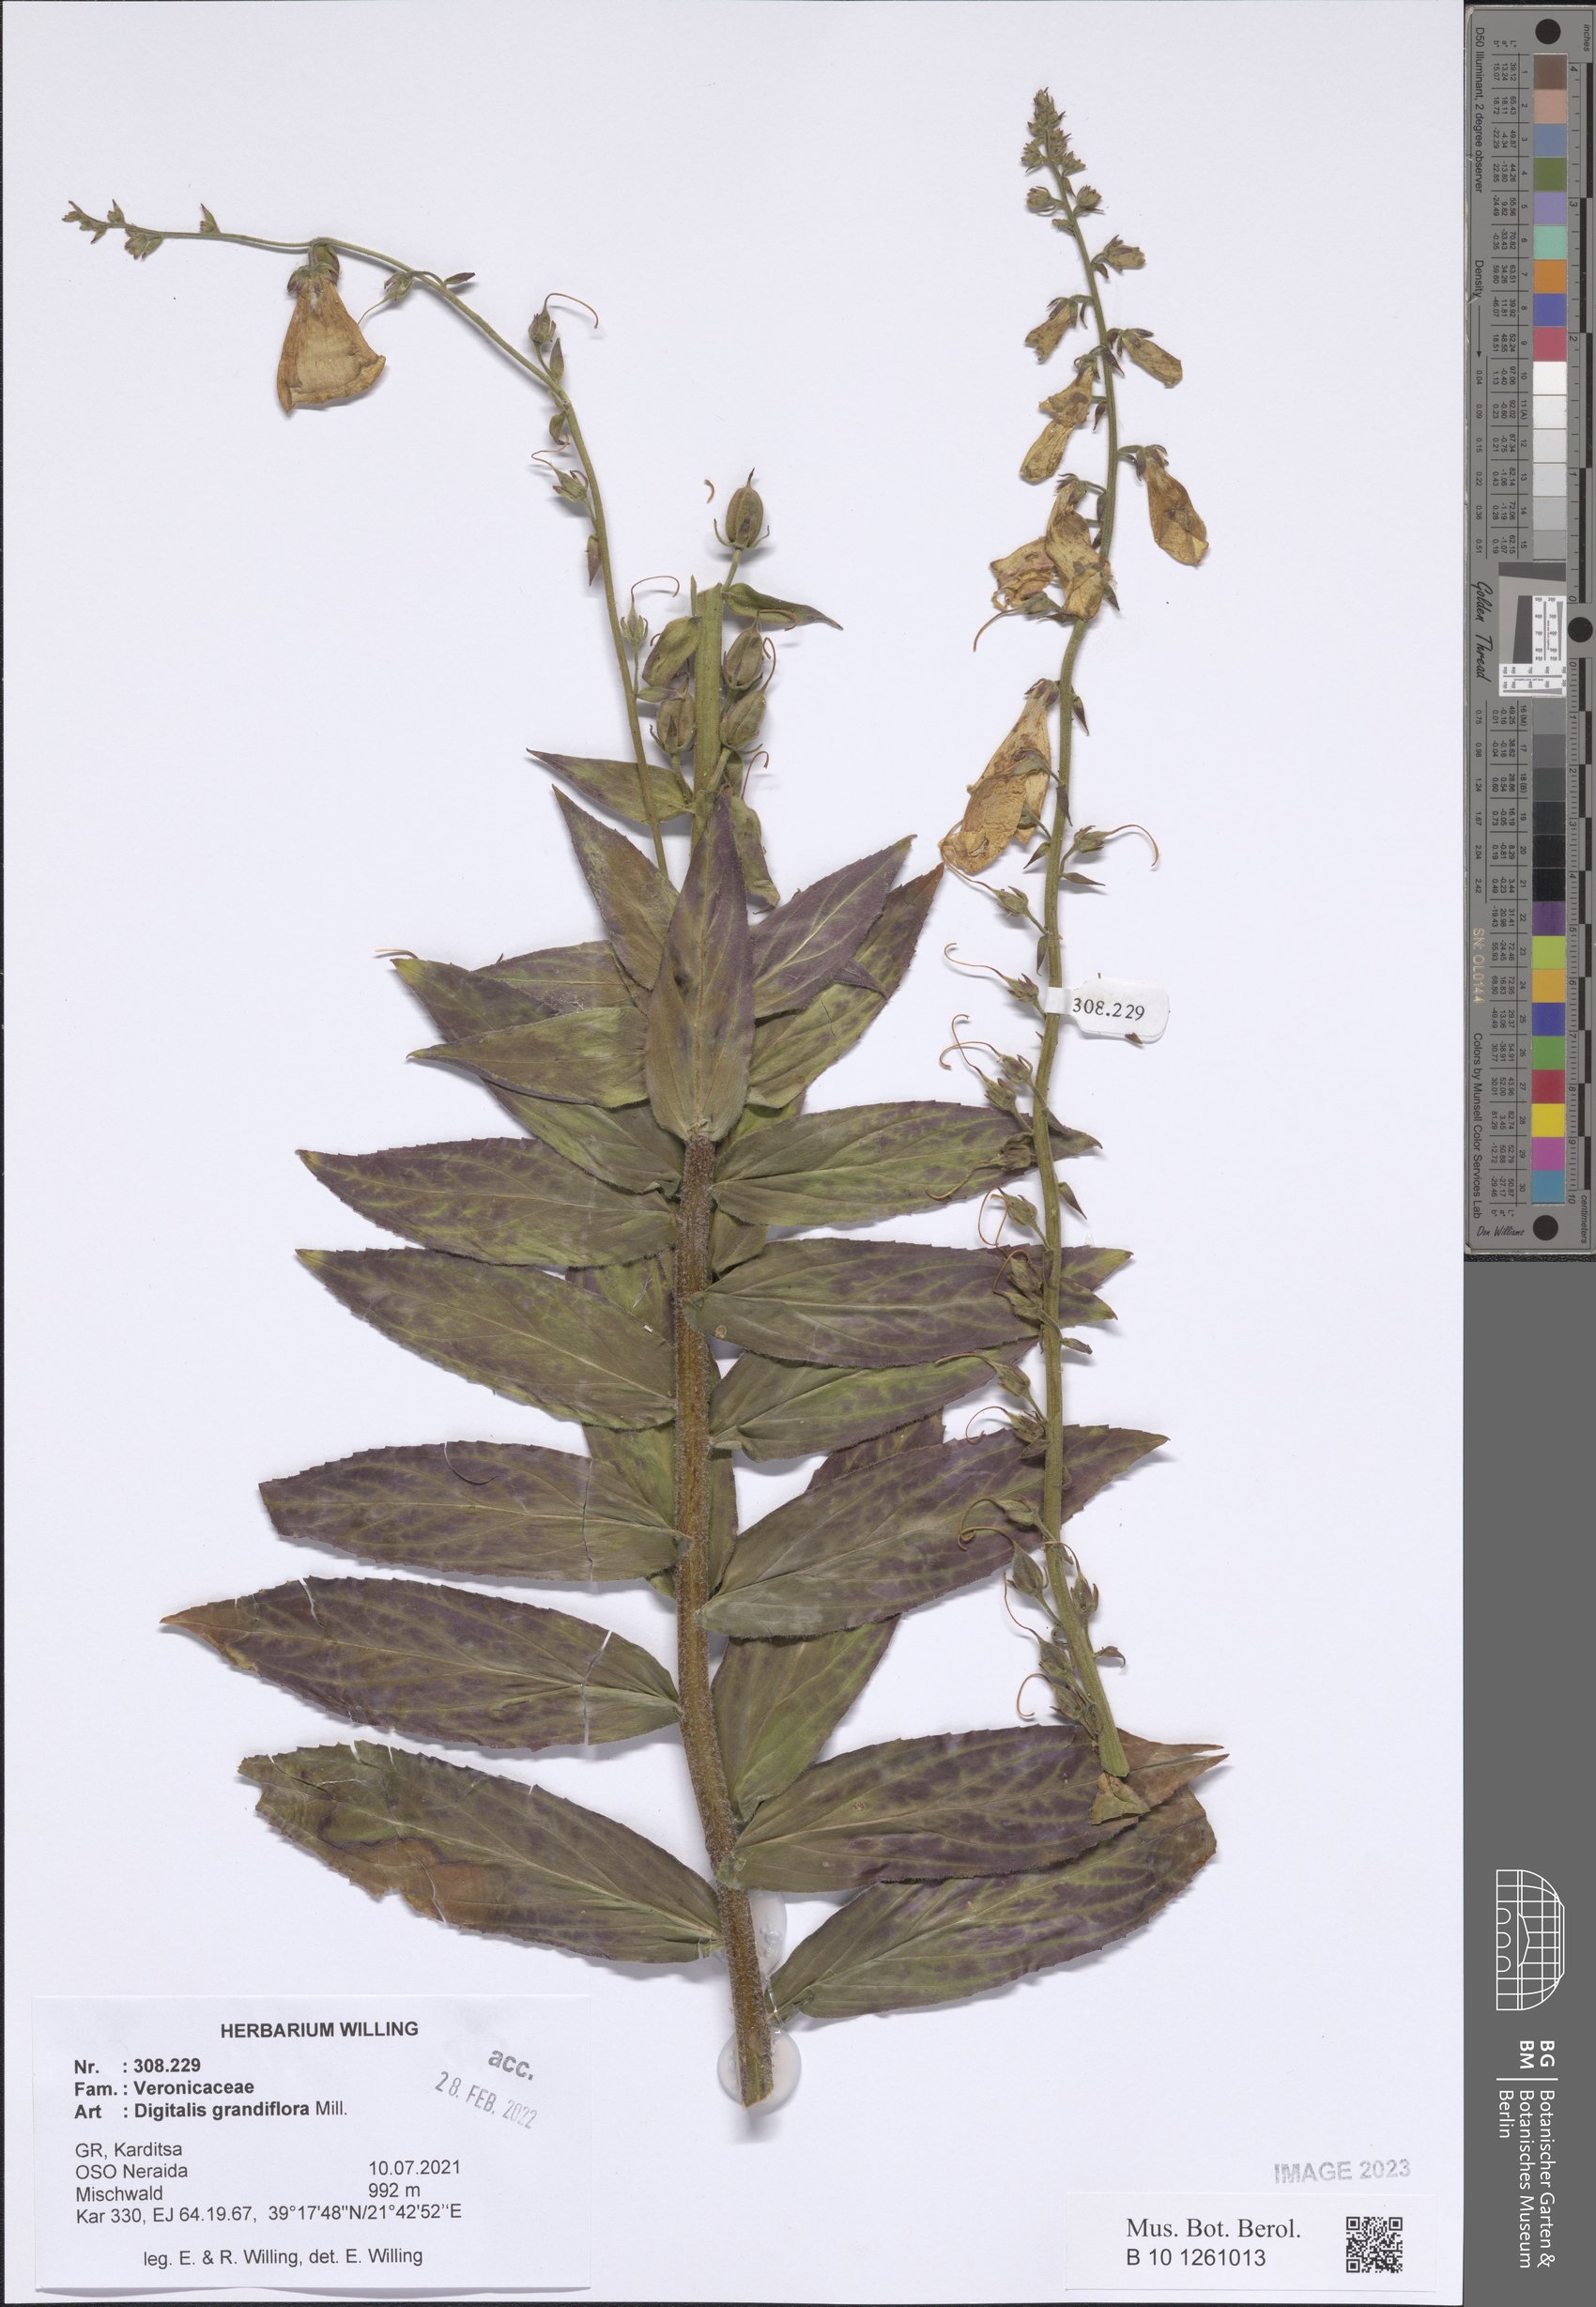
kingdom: Plantae
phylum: Tracheophyta
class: Magnoliopsida
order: Lamiales
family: Plantaginaceae
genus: Digitalis
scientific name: Digitalis grandiflora
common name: Yellow foxglove
